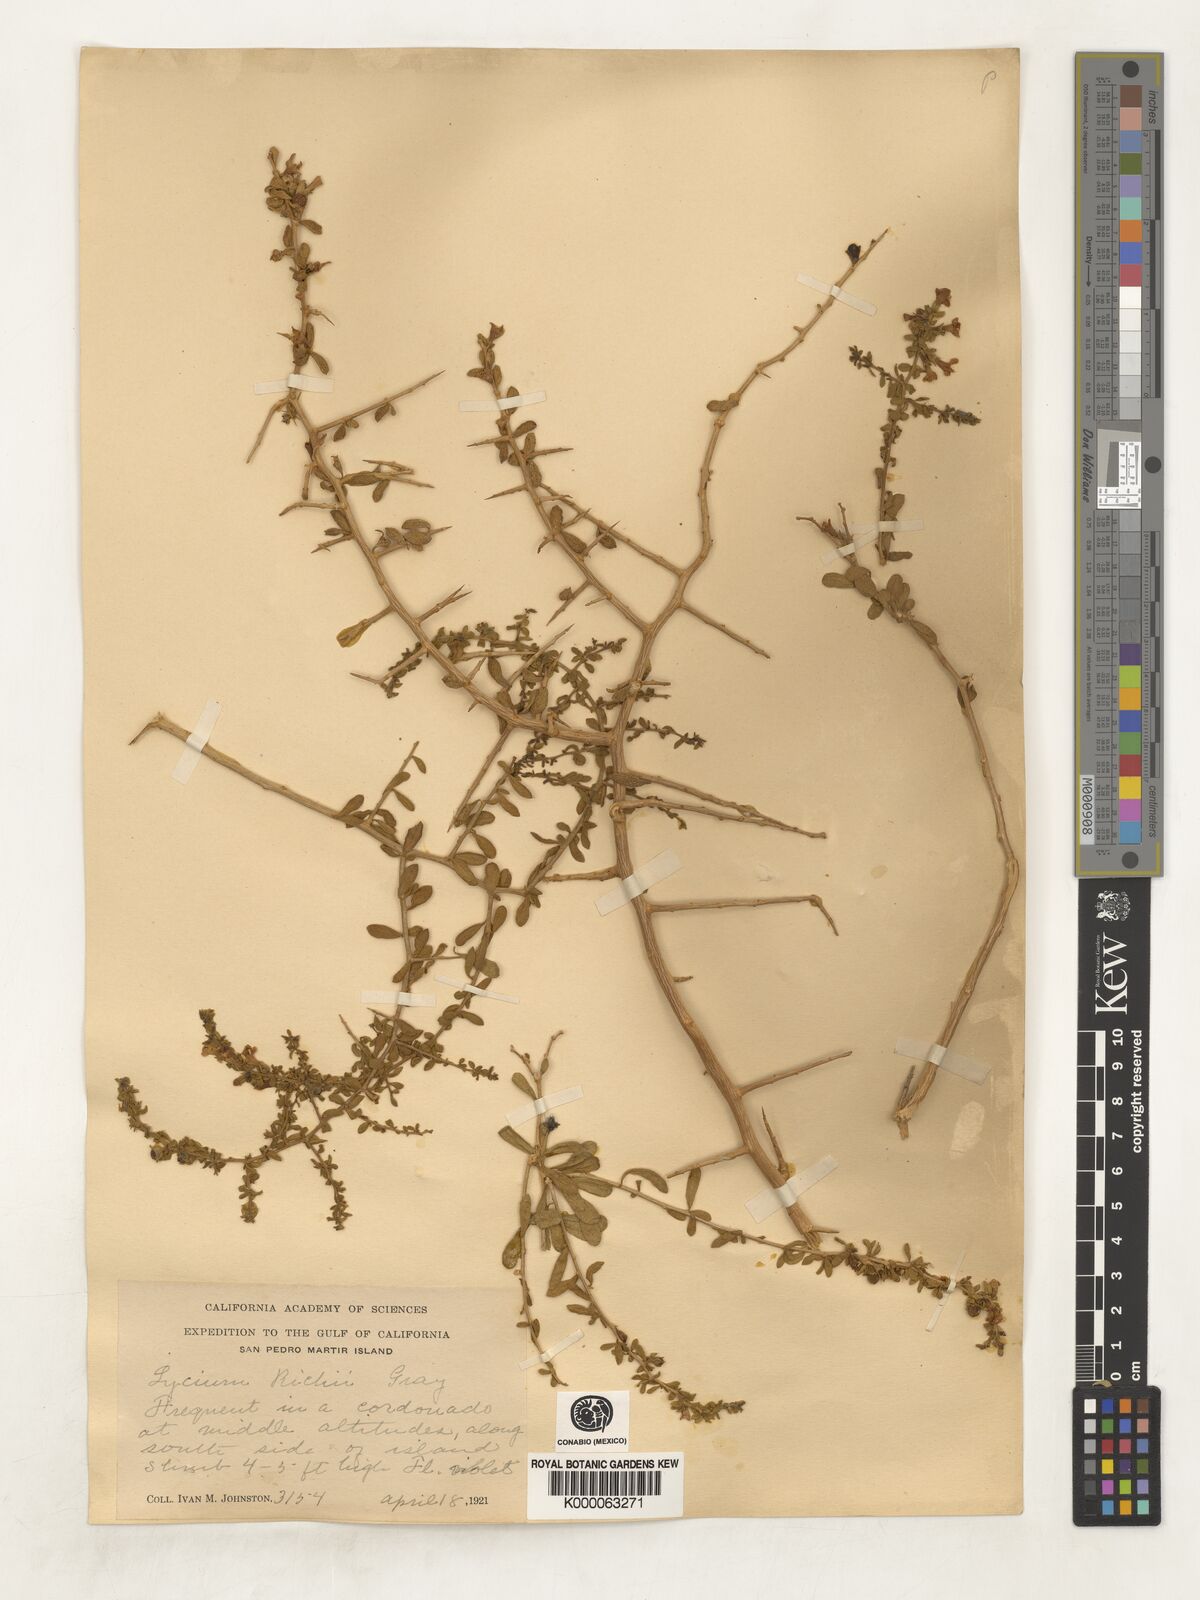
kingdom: Plantae
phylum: Tracheophyta
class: Magnoliopsida
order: Solanales
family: Solanaceae
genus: Lycium
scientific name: Lycium brevipes
